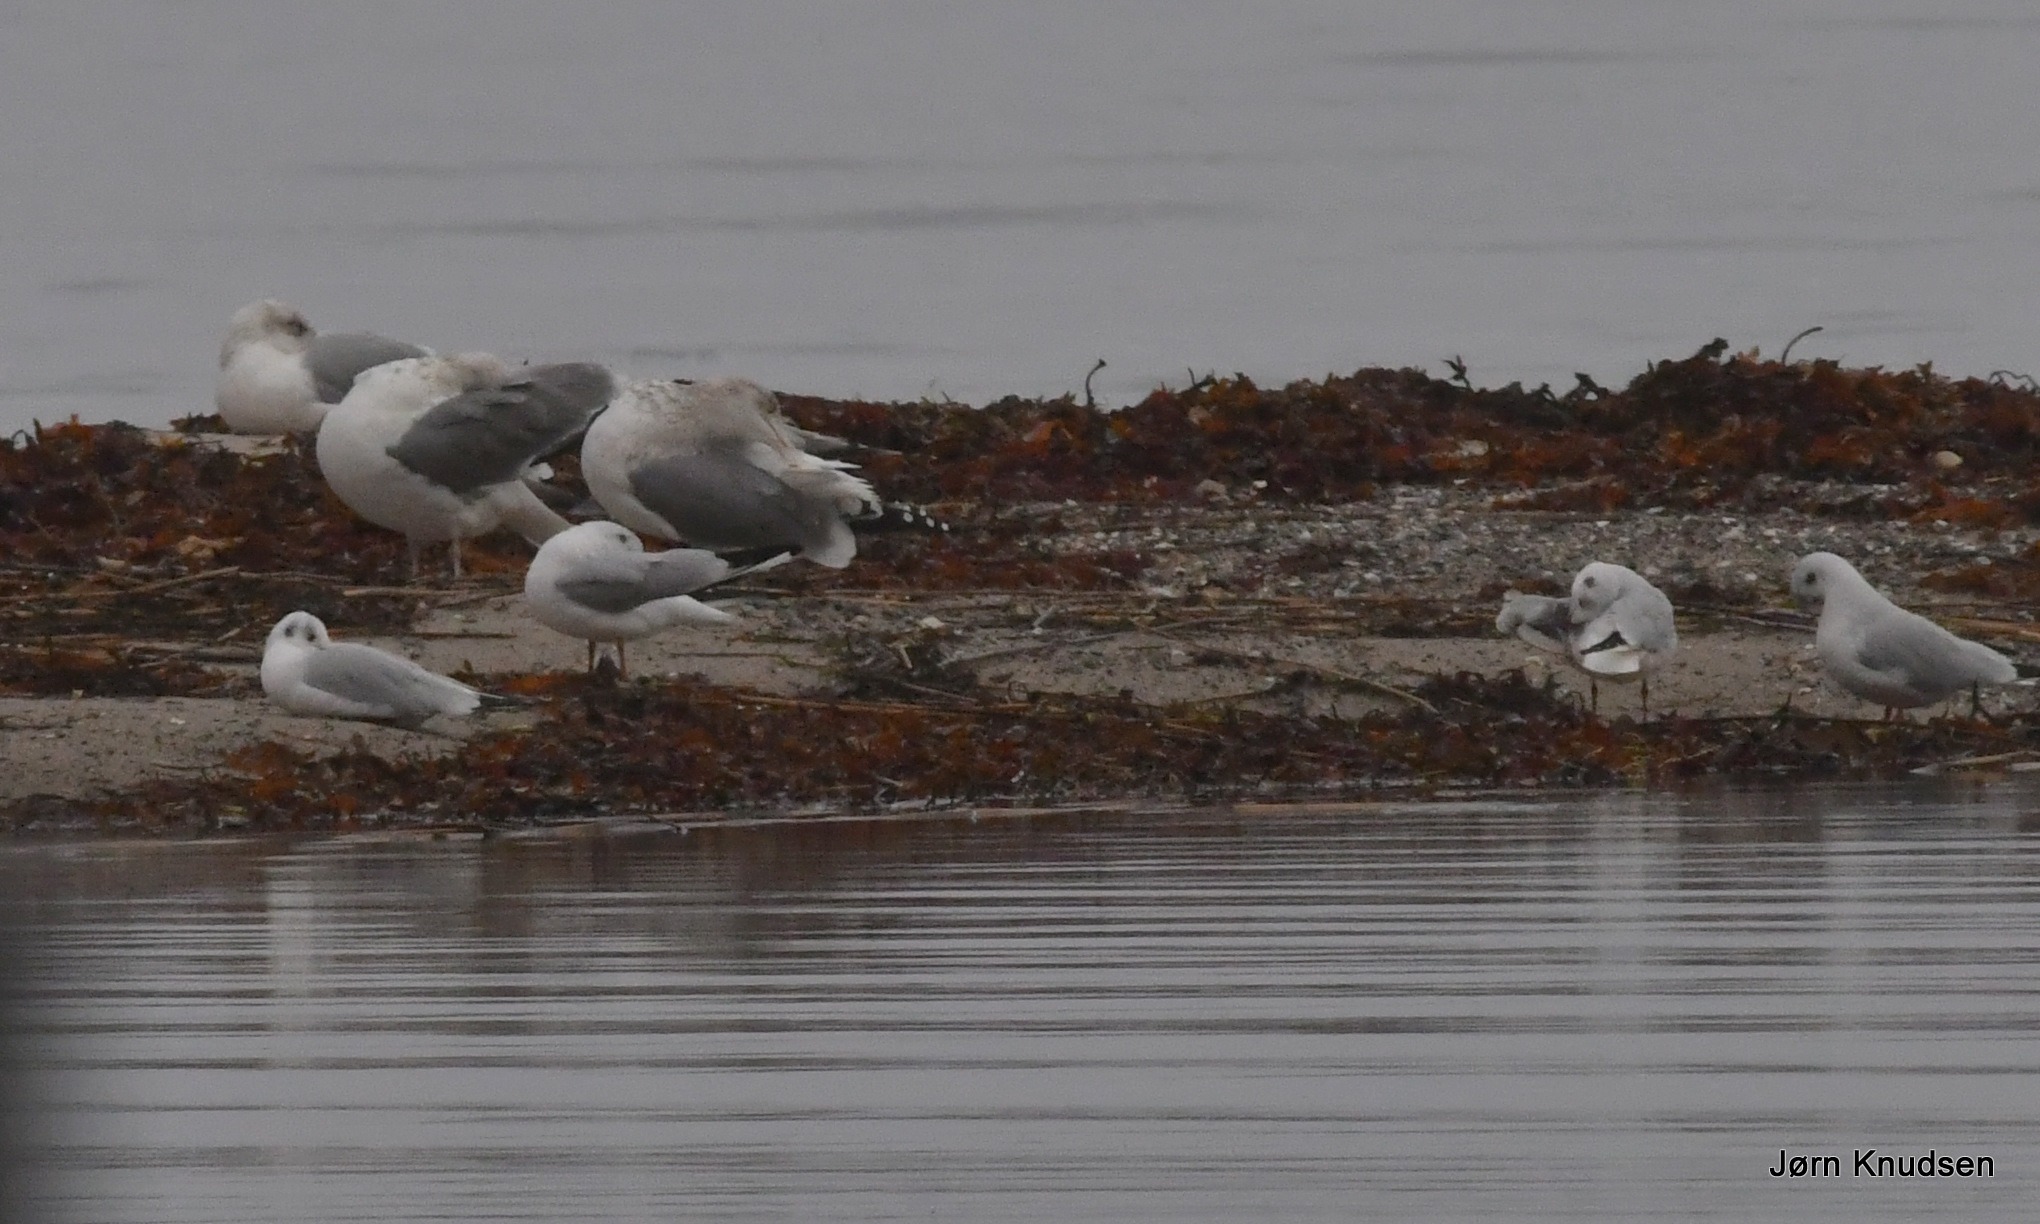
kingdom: Animalia
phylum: Chordata
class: Aves
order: Charadriiformes
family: Laridae
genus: Larus
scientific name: Larus argentatus
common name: Sølvmåge
